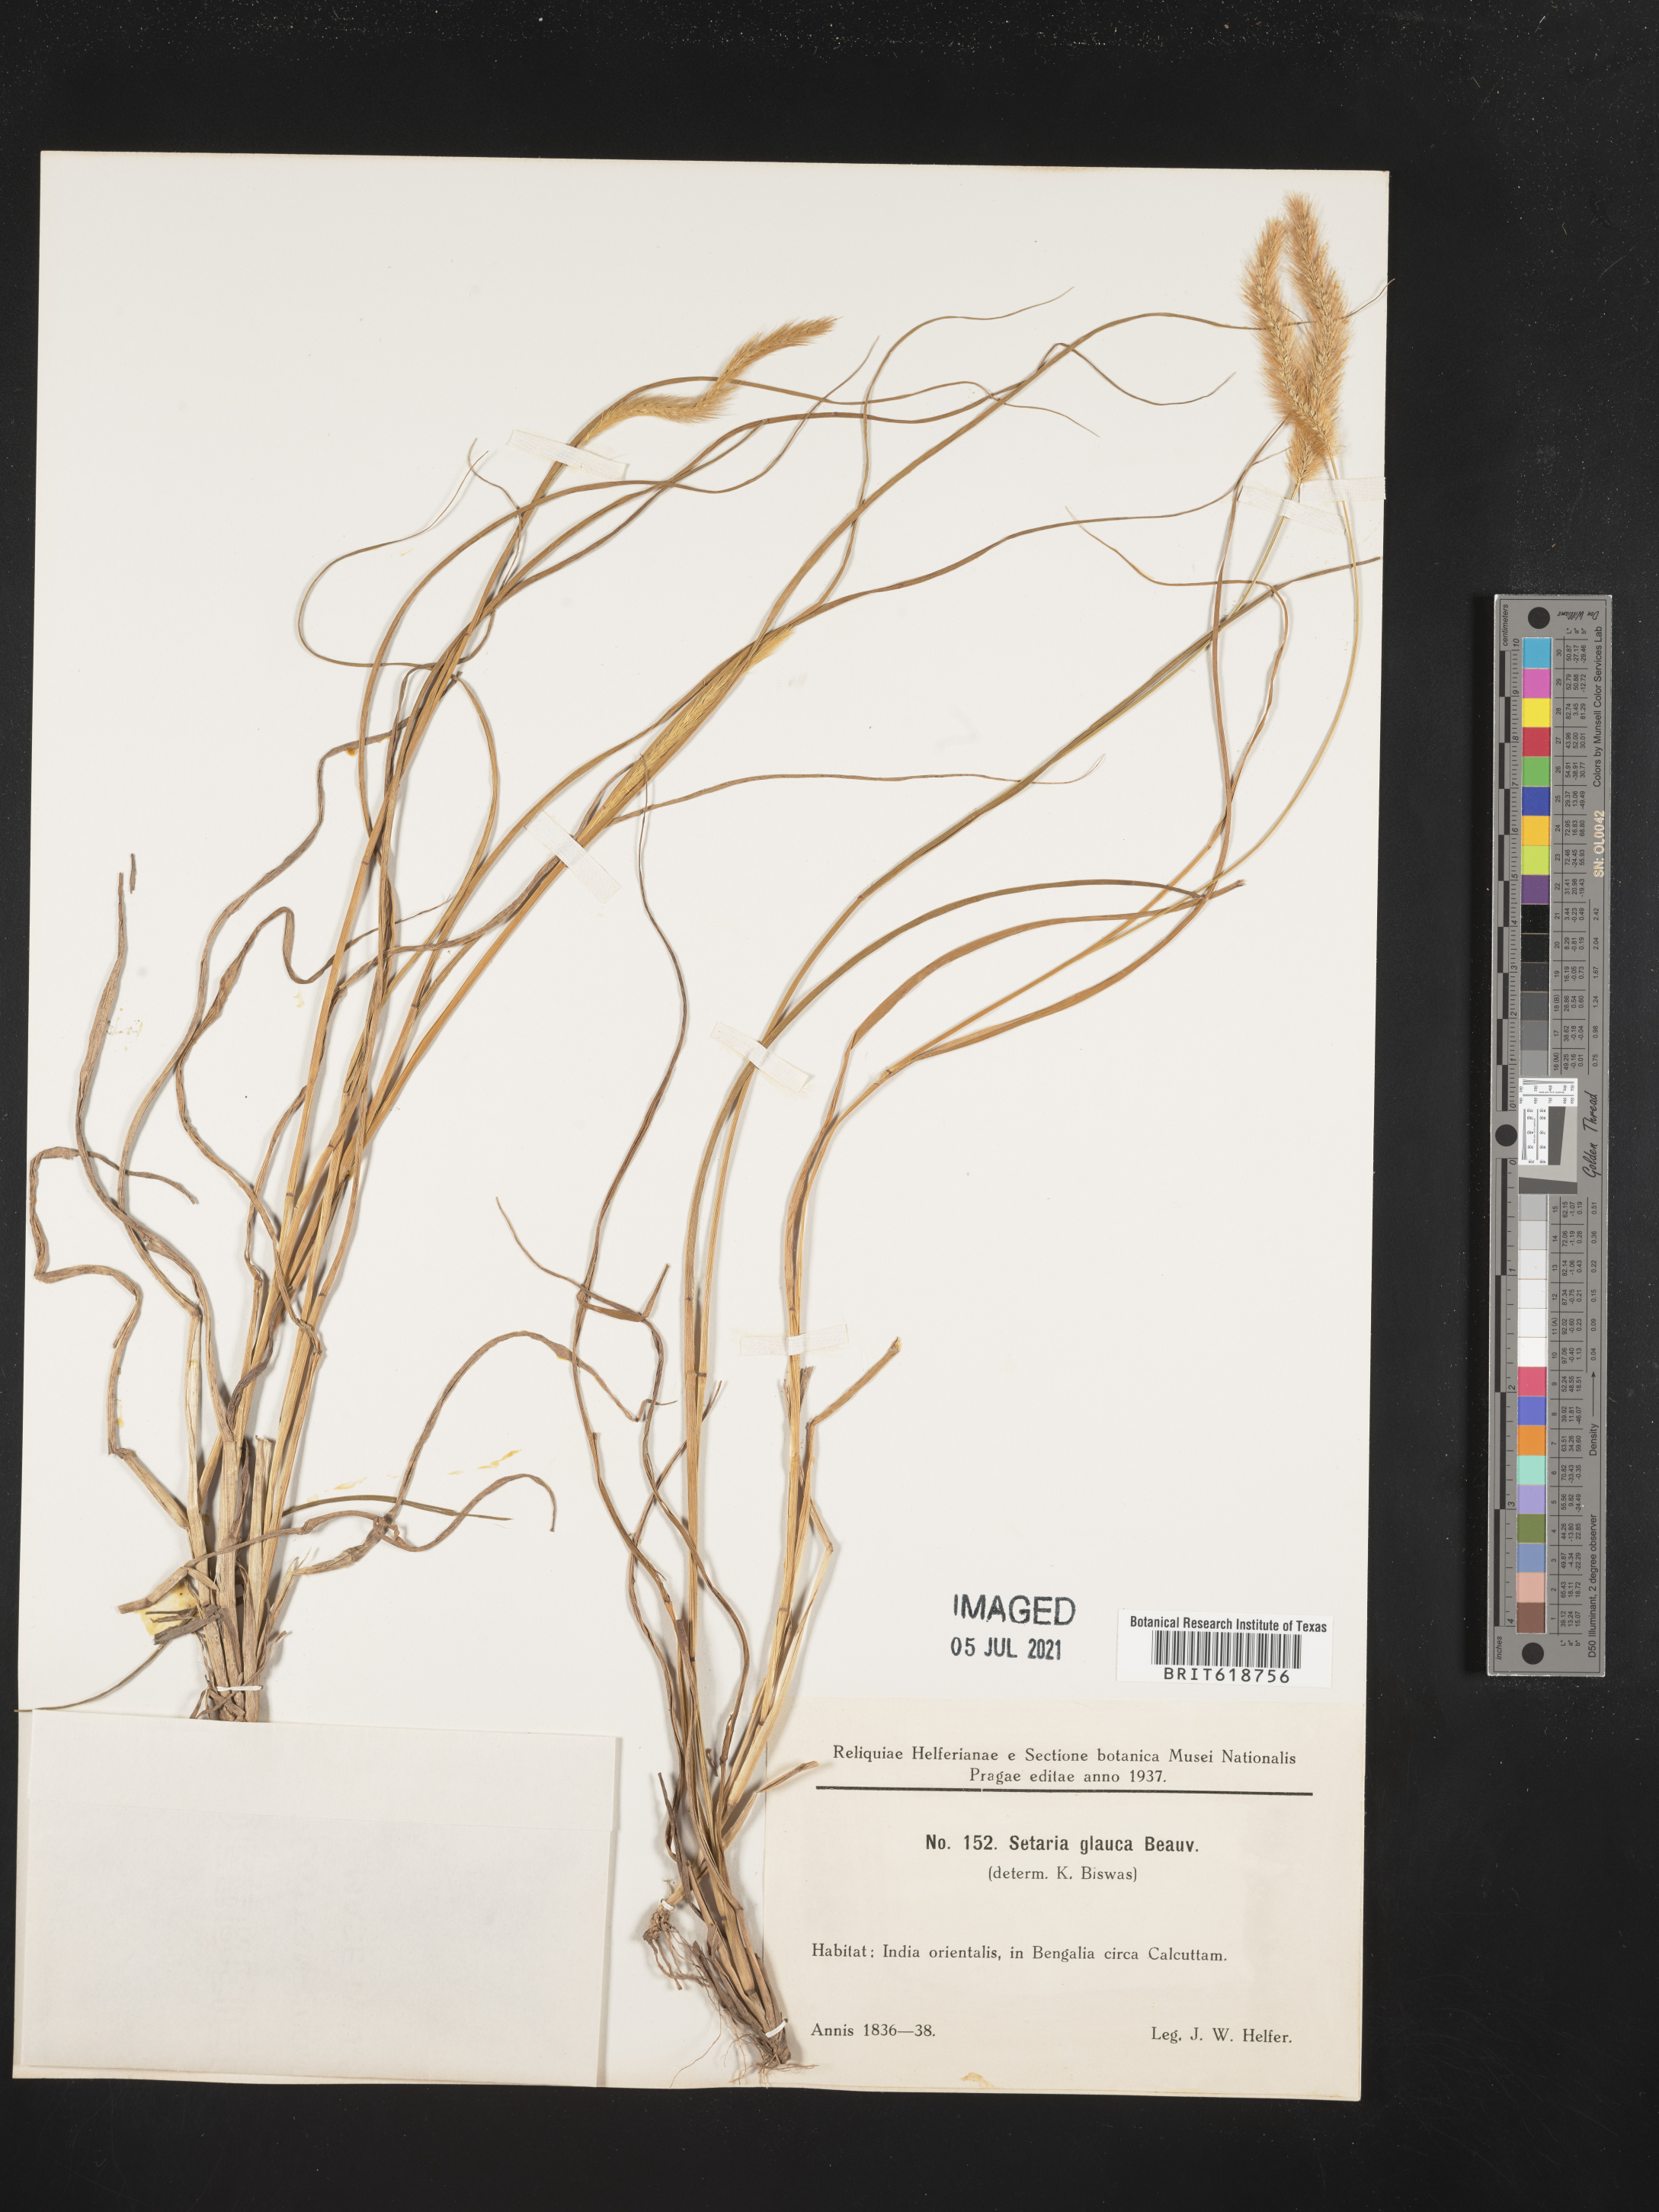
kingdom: Plantae
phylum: Tracheophyta
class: Liliopsida
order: Poales
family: Poaceae
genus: Cenchrus
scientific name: Cenchrus americanus
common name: Pearl millet
